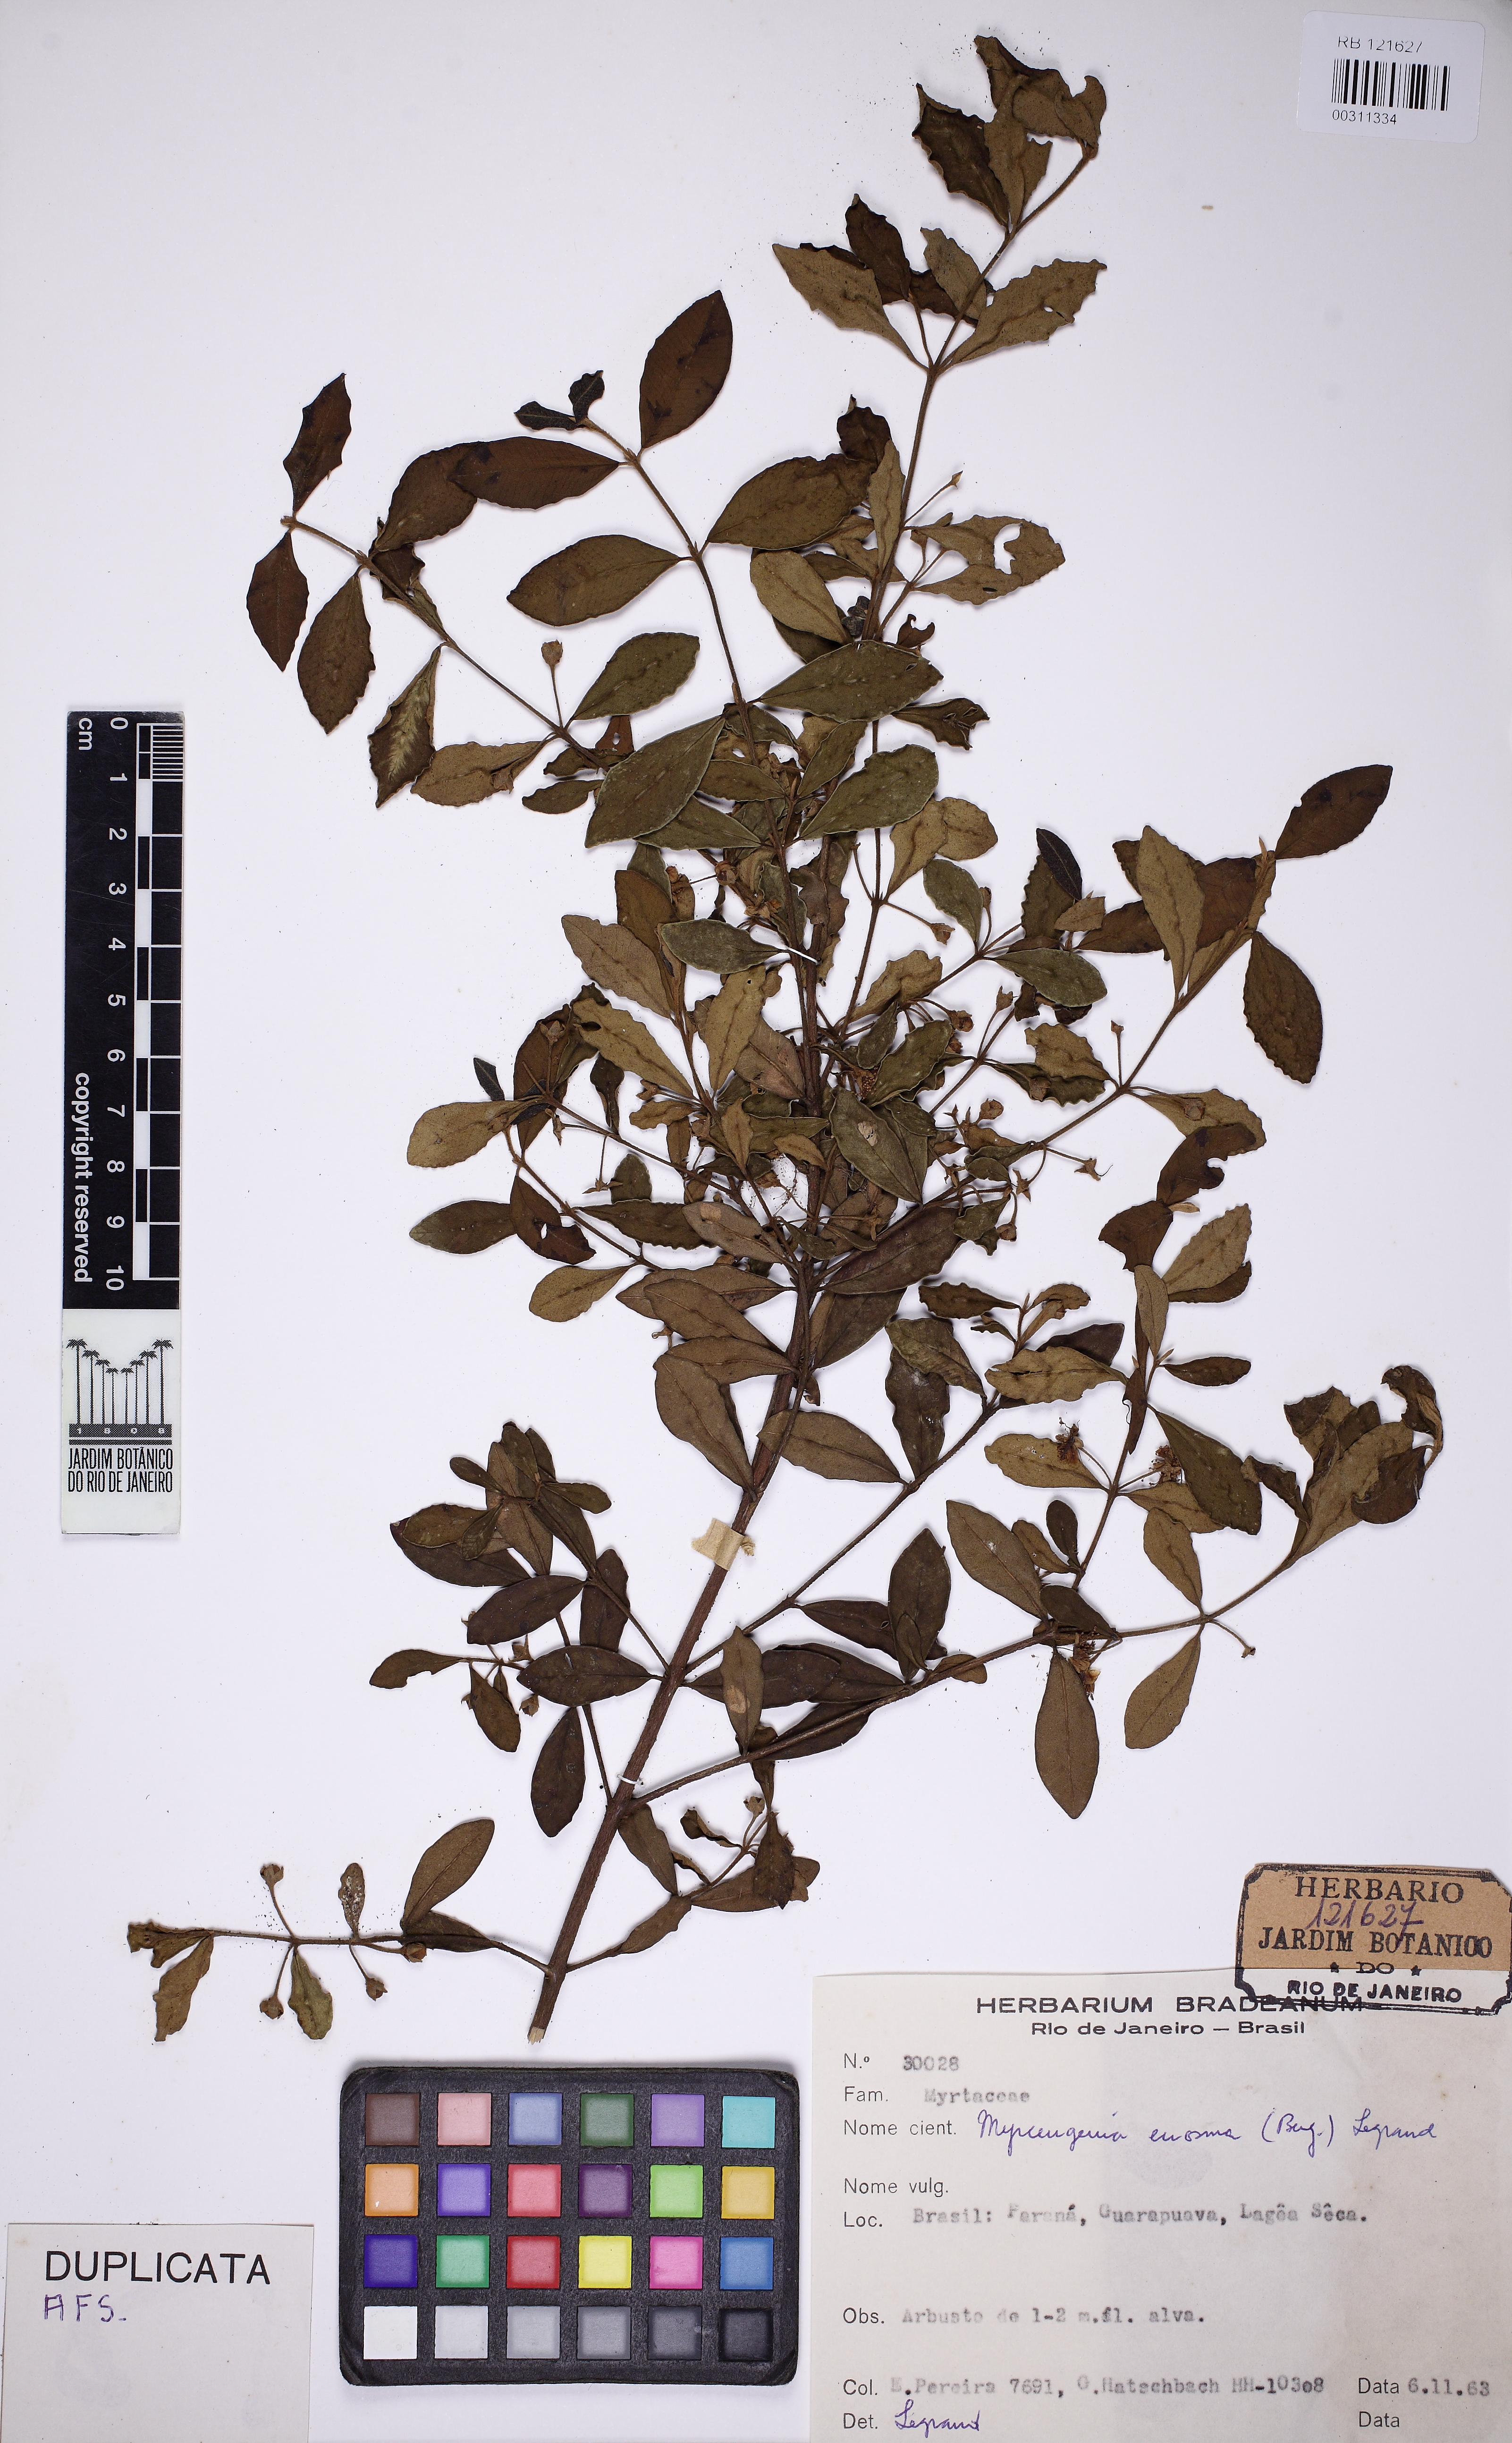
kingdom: Plantae
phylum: Tracheophyta
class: Magnoliopsida
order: Myrtales
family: Myrtaceae
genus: Myrceugenia
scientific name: Myrceugenia euosma
